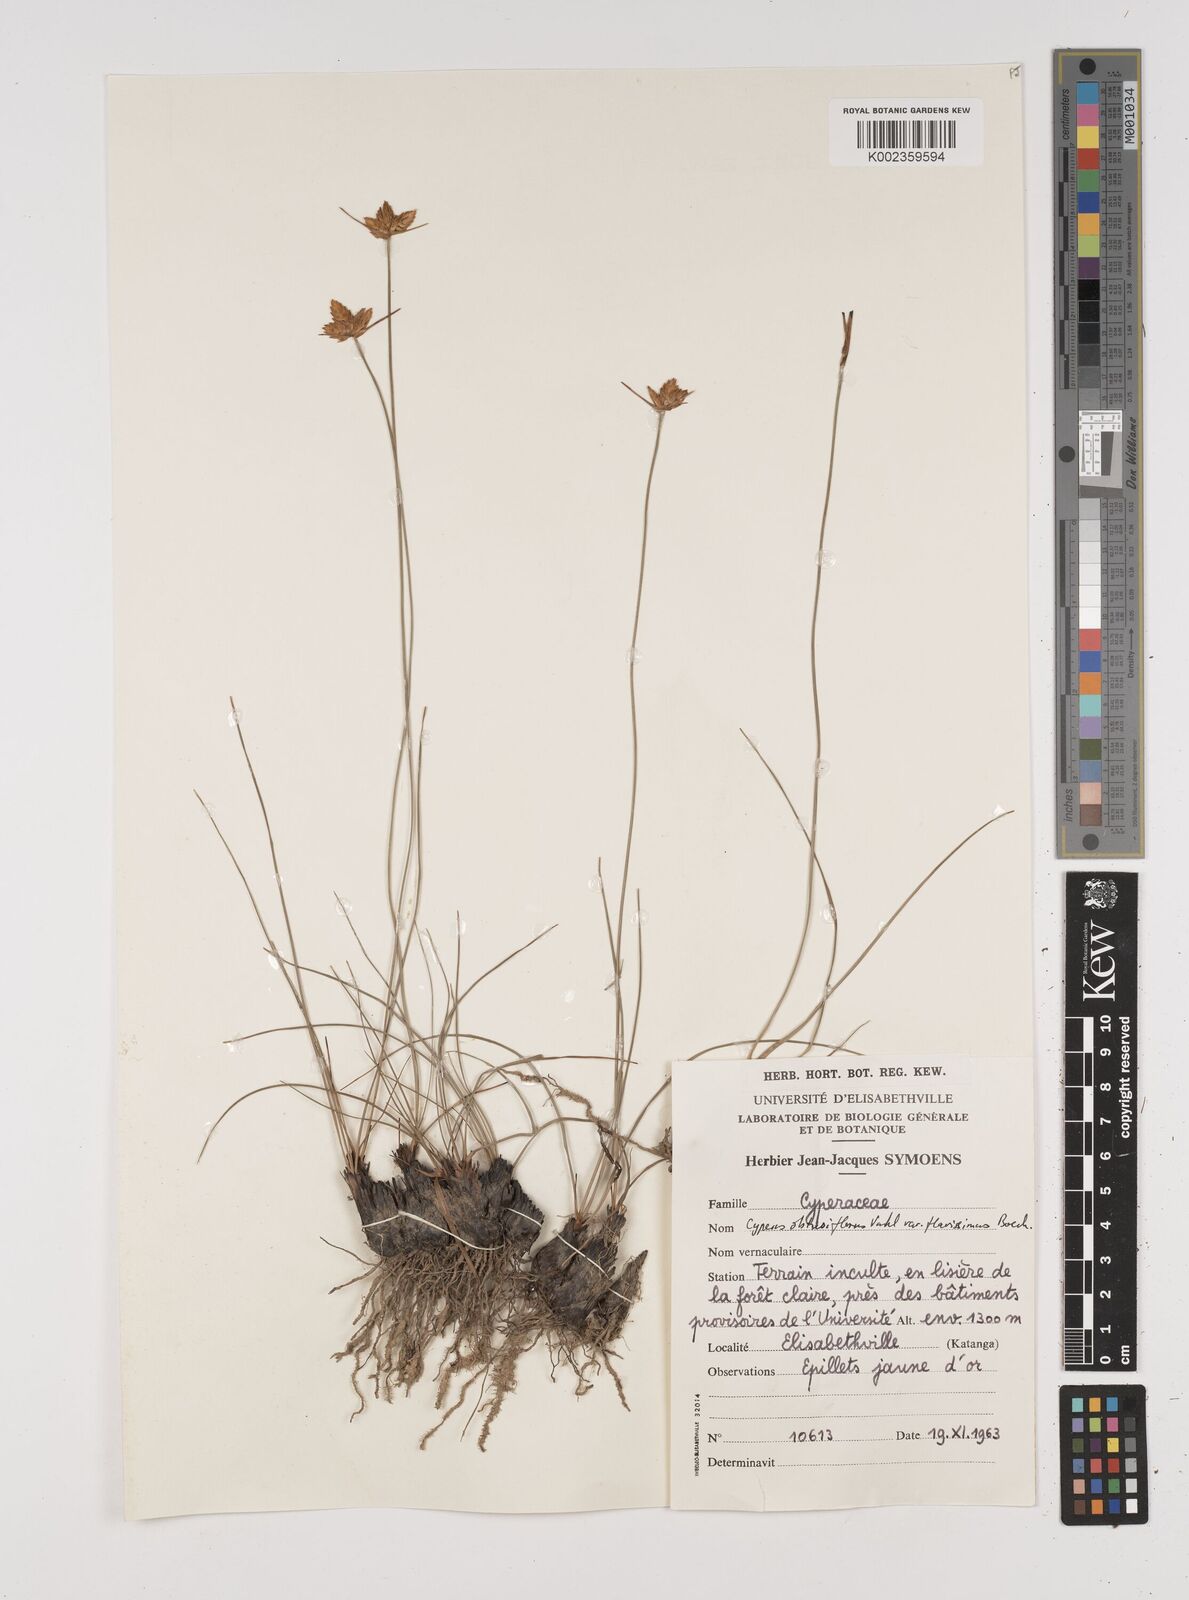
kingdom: Plantae
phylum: Tracheophyta
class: Liliopsida
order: Poales
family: Cyperaceae
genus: Cyperus
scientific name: Cyperus kibweanus
